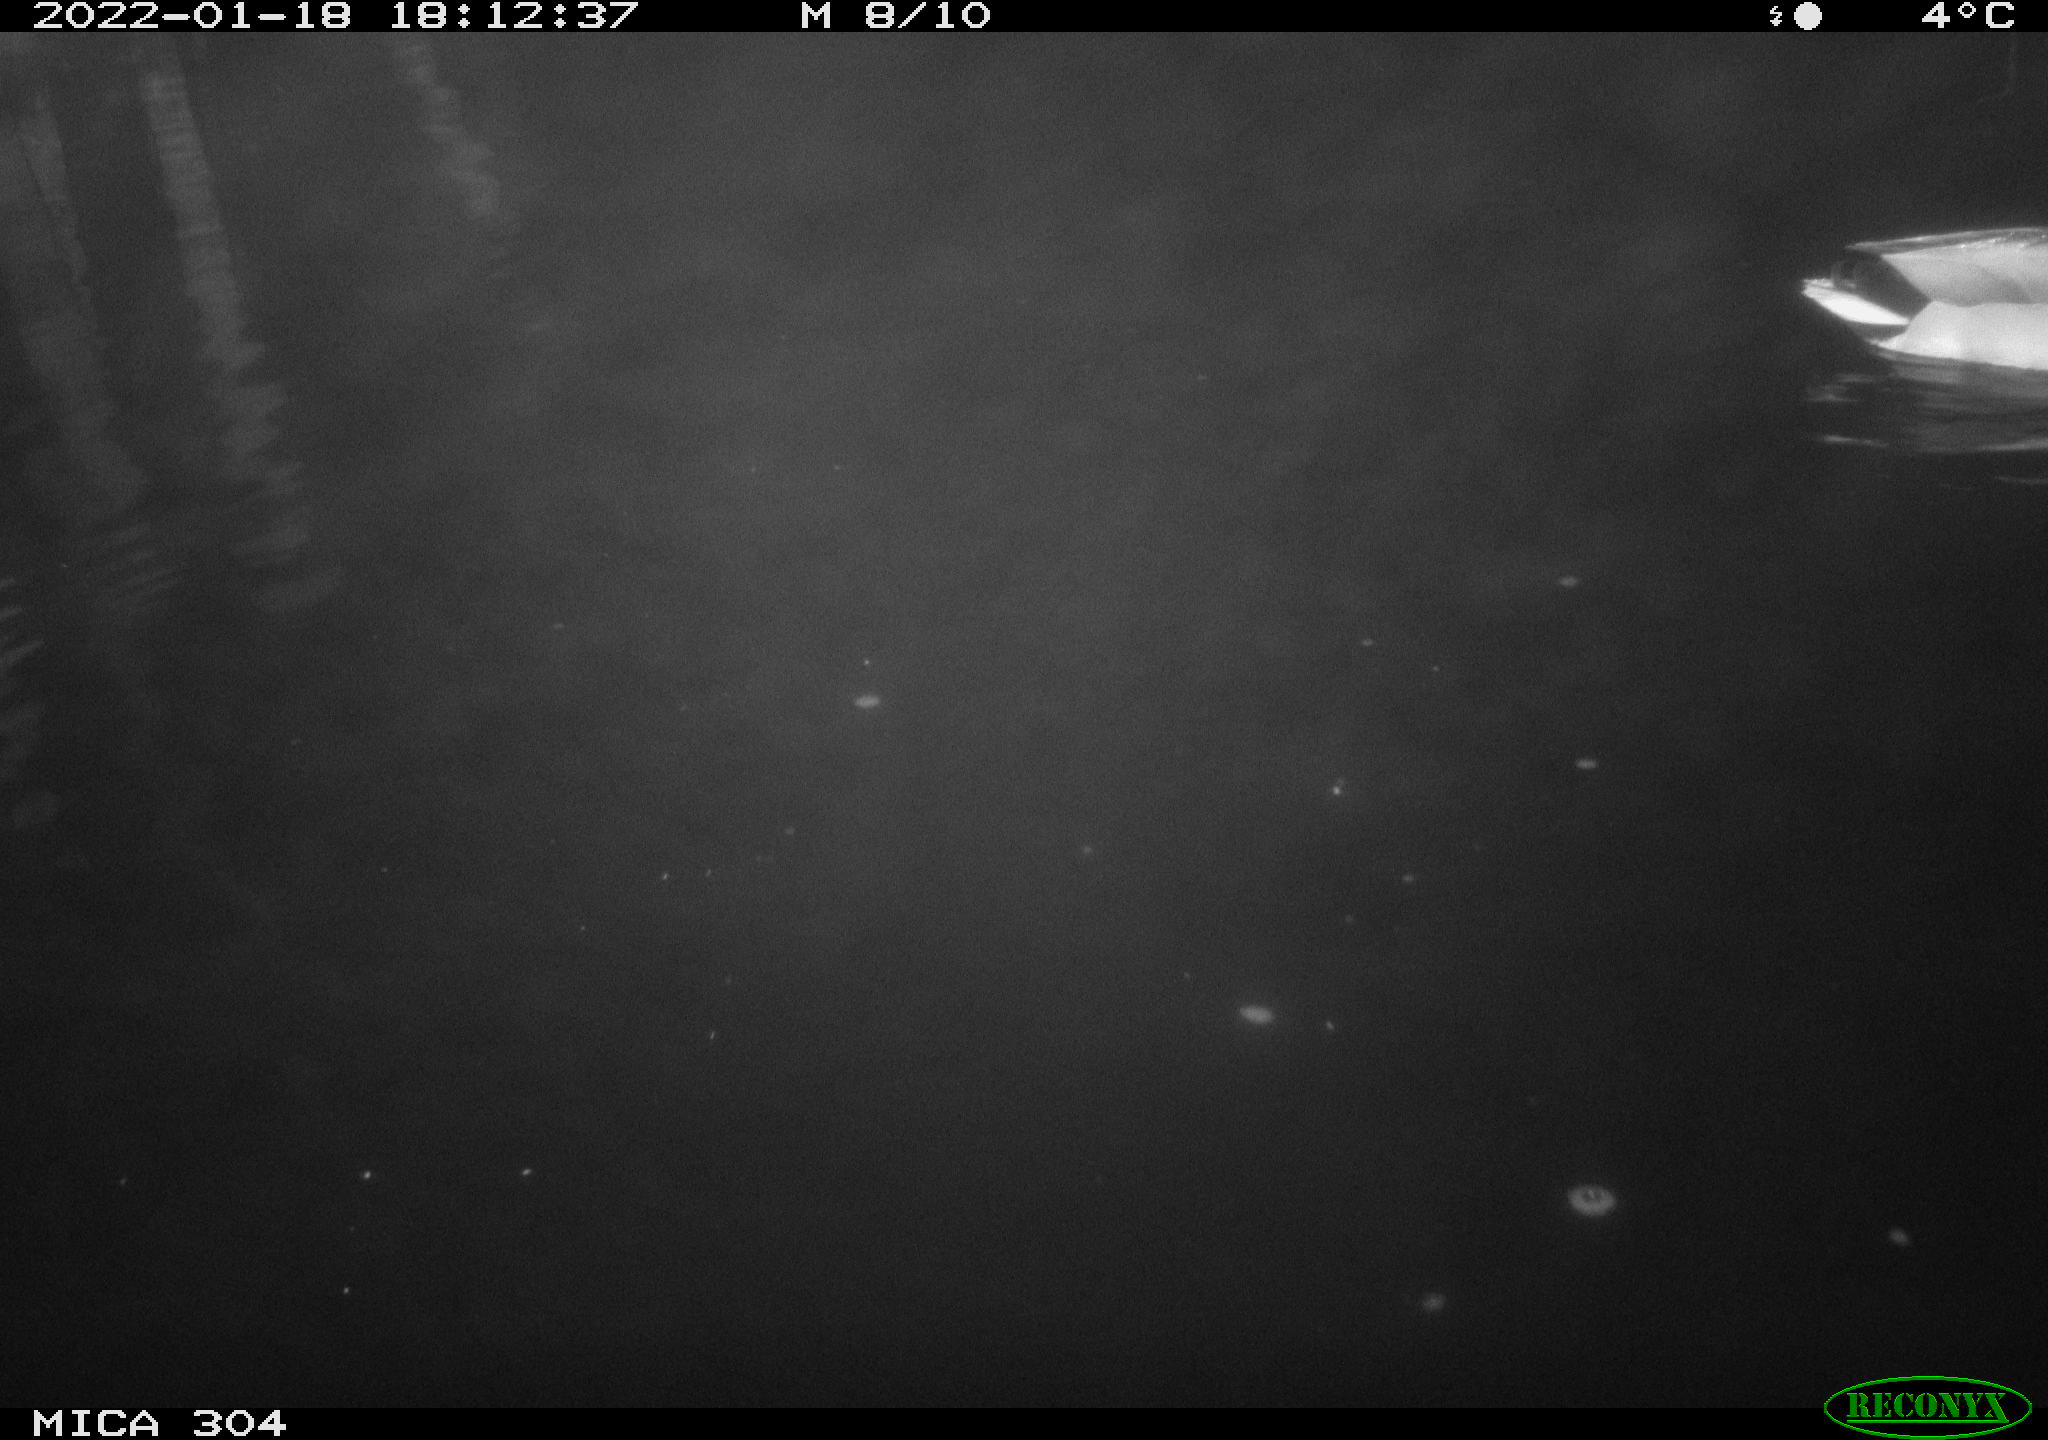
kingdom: Animalia
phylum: Chordata
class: Aves
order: Anseriformes
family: Anatidae
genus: Anas
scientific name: Anas
